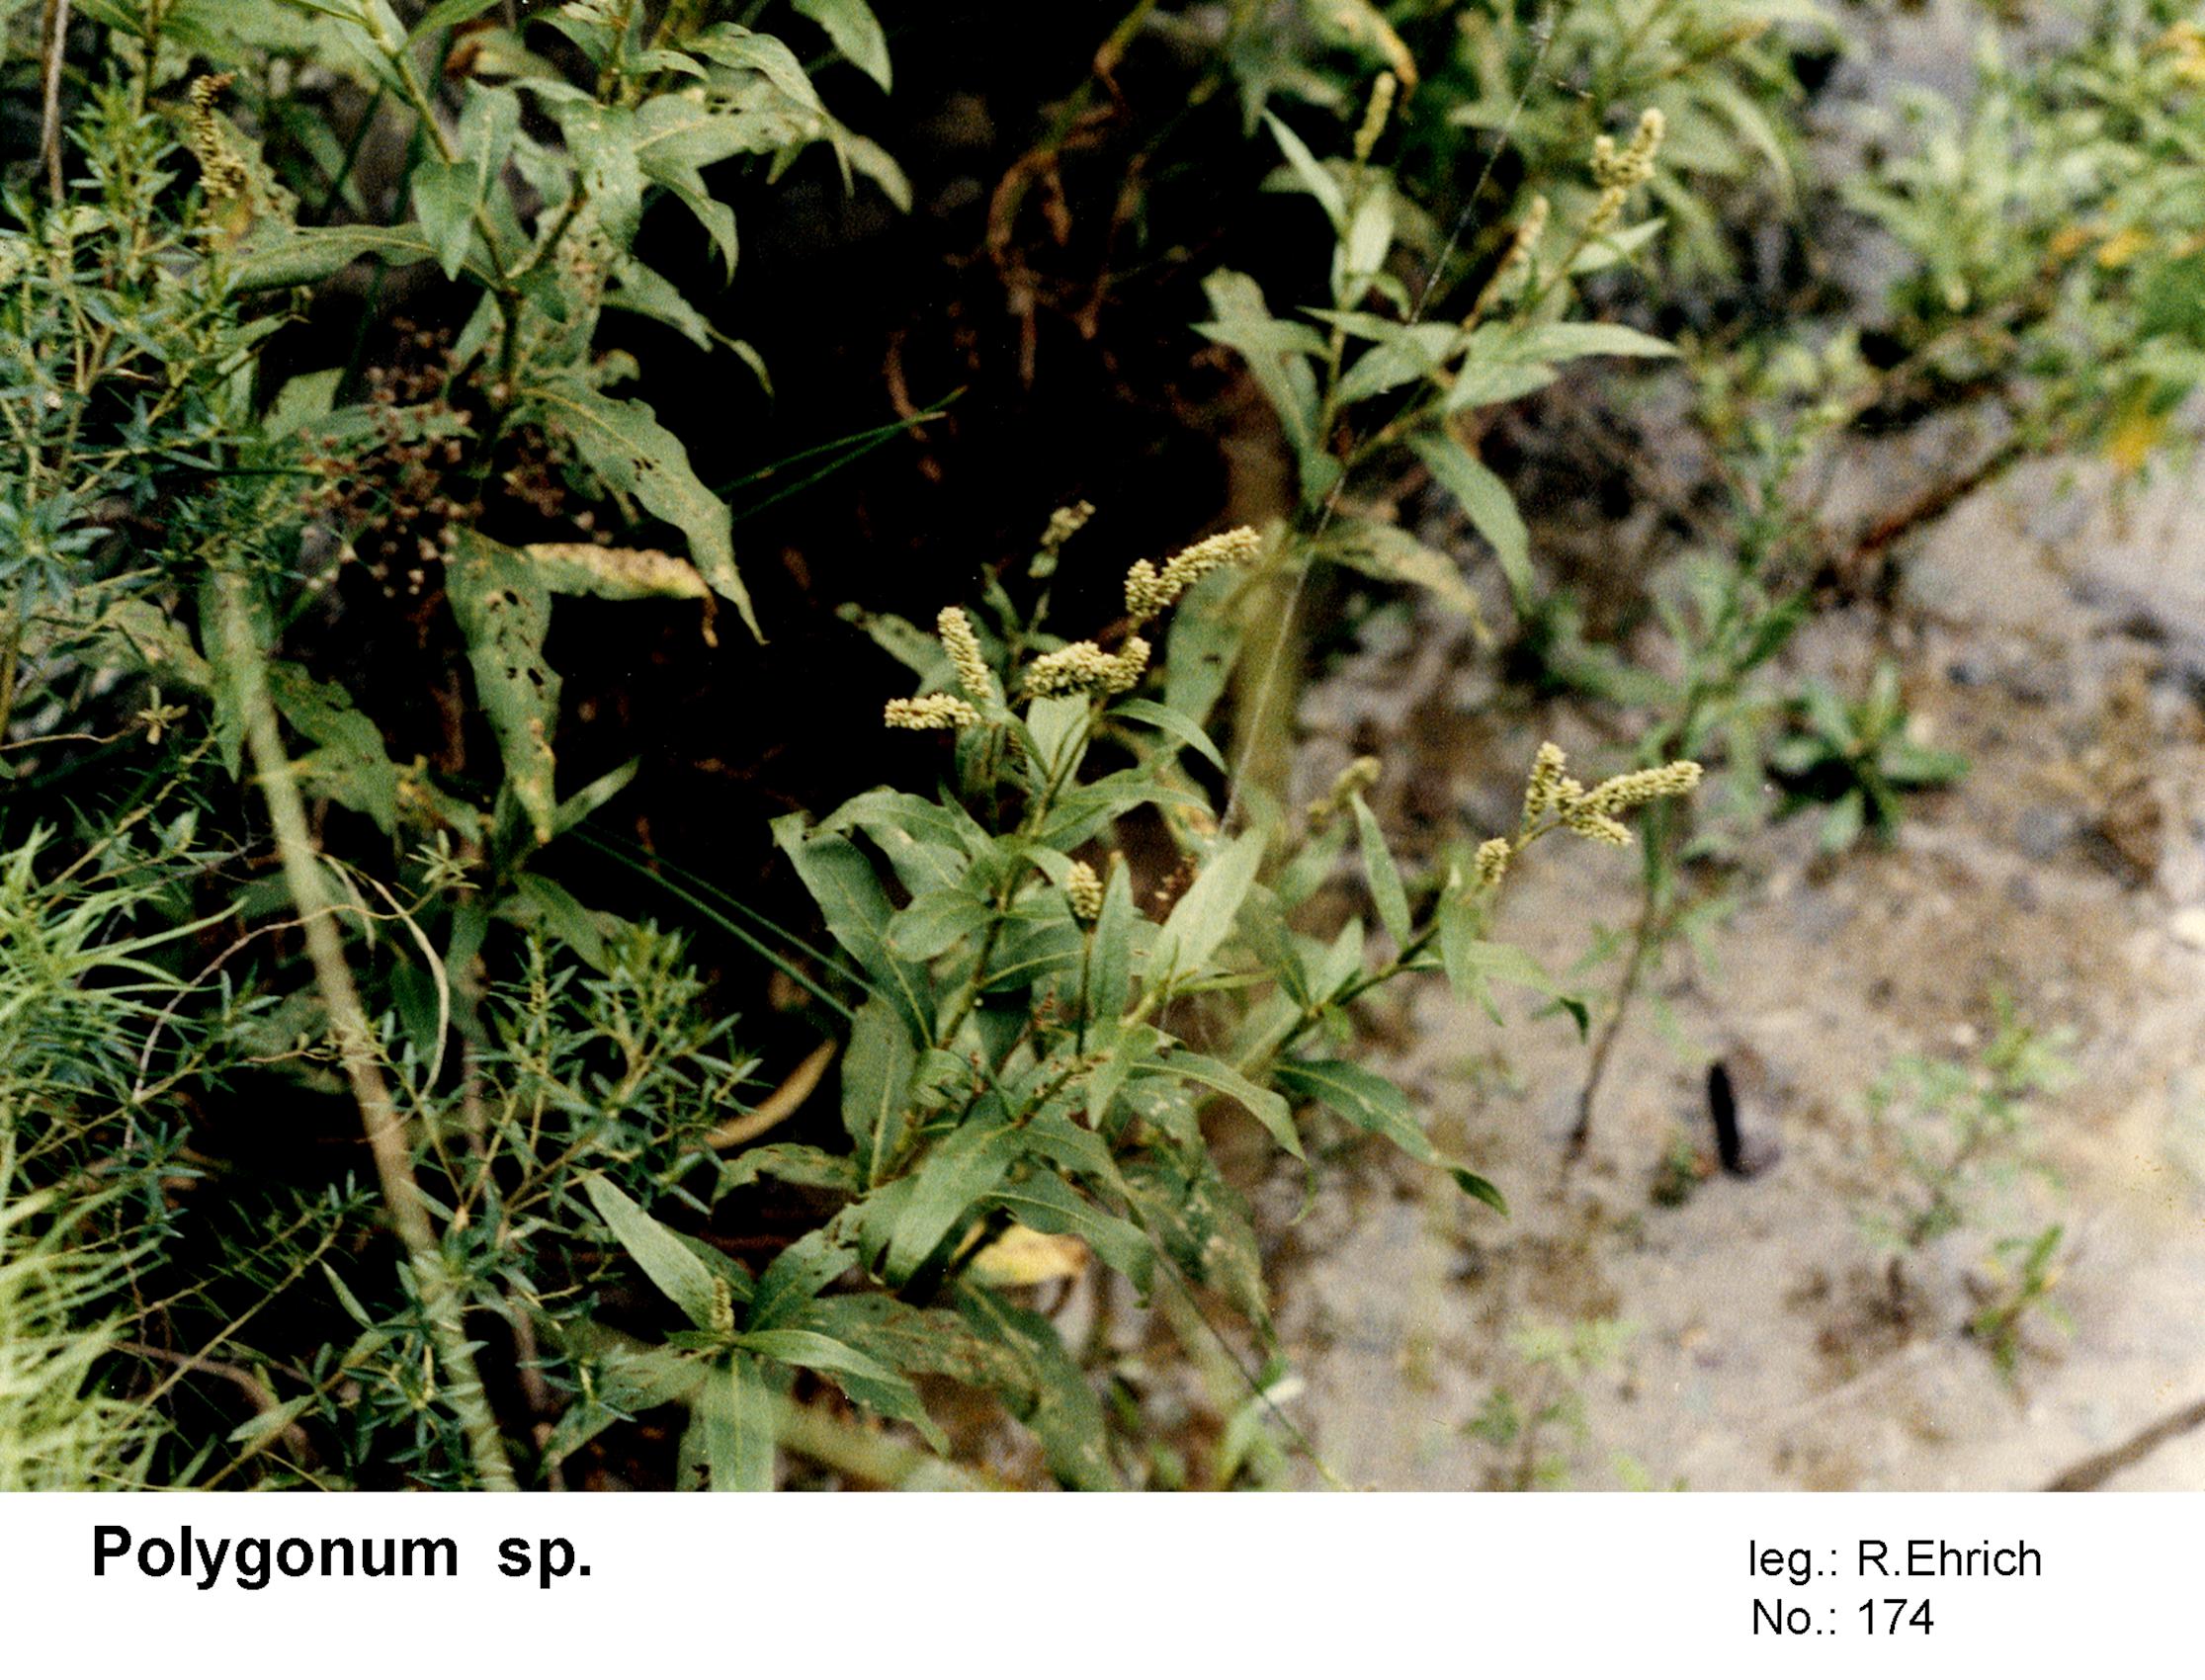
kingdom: Plantae
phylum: Tracheophyta
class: Magnoliopsida
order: Caryophyllales
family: Polygonaceae
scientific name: Polygonaceae
